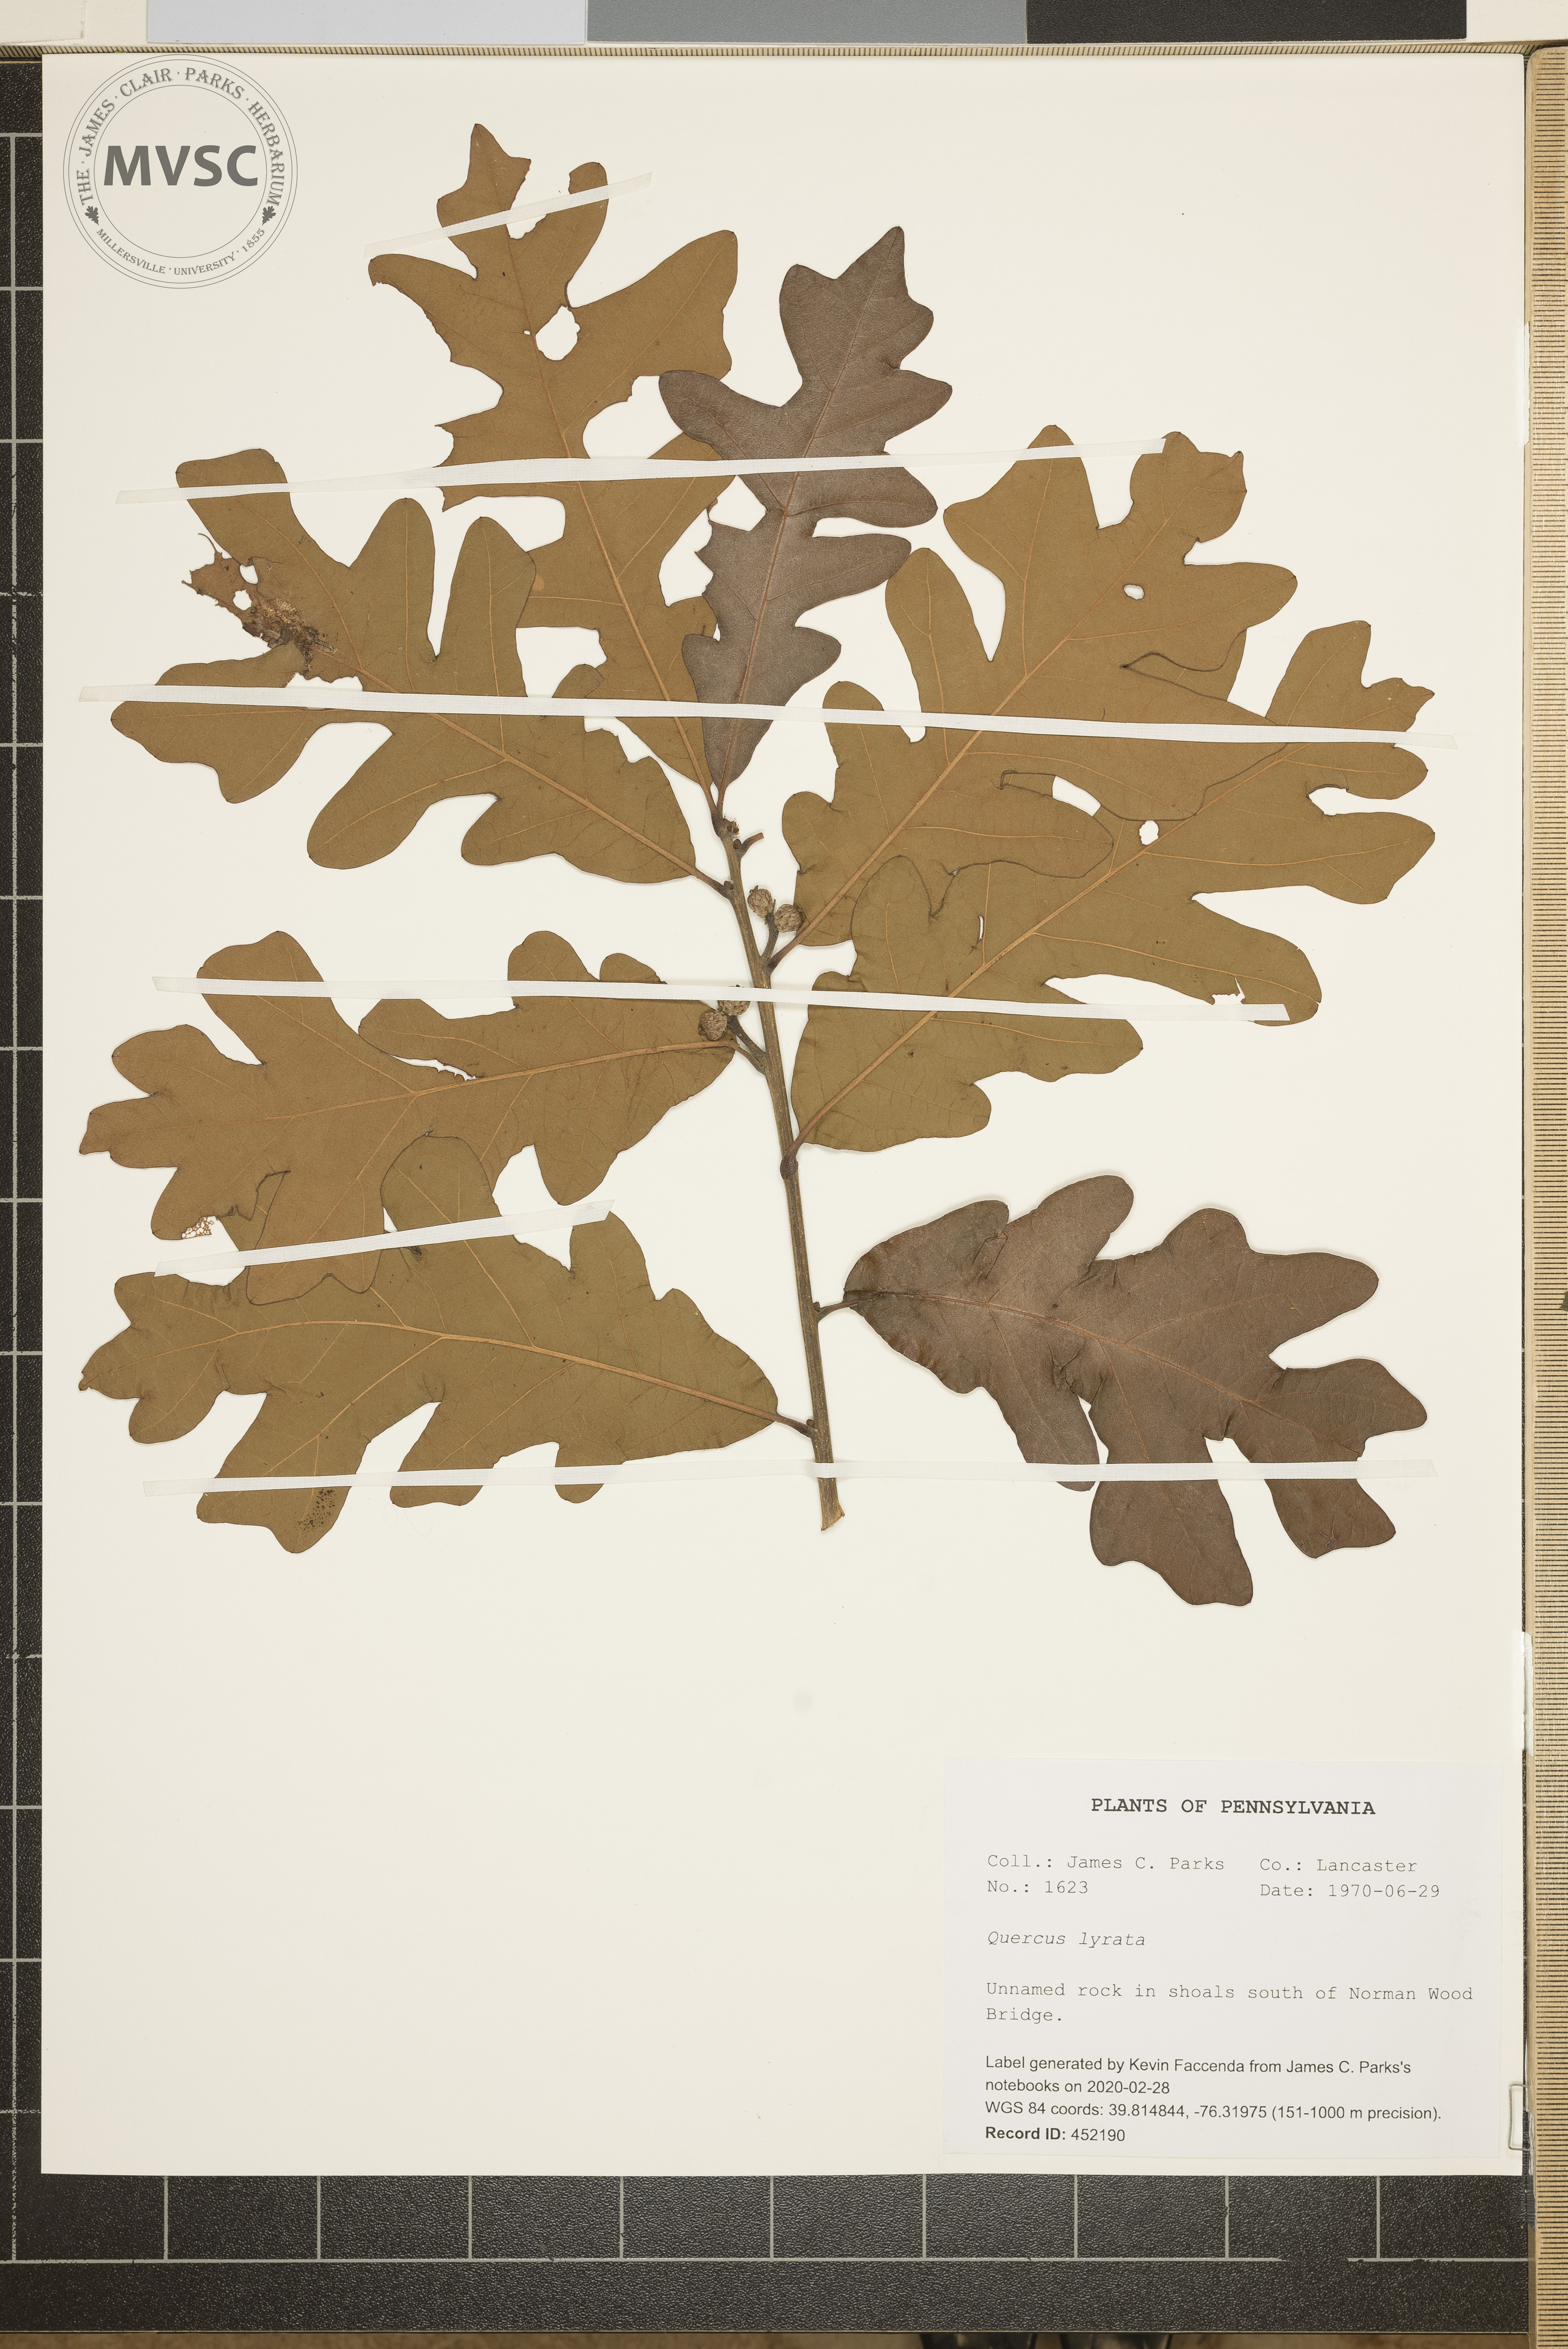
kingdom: Plantae
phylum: Tracheophyta
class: Magnoliopsida
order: Fagales
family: Fagaceae
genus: Quercus
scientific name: Quercus lyrata
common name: Overcup oak
